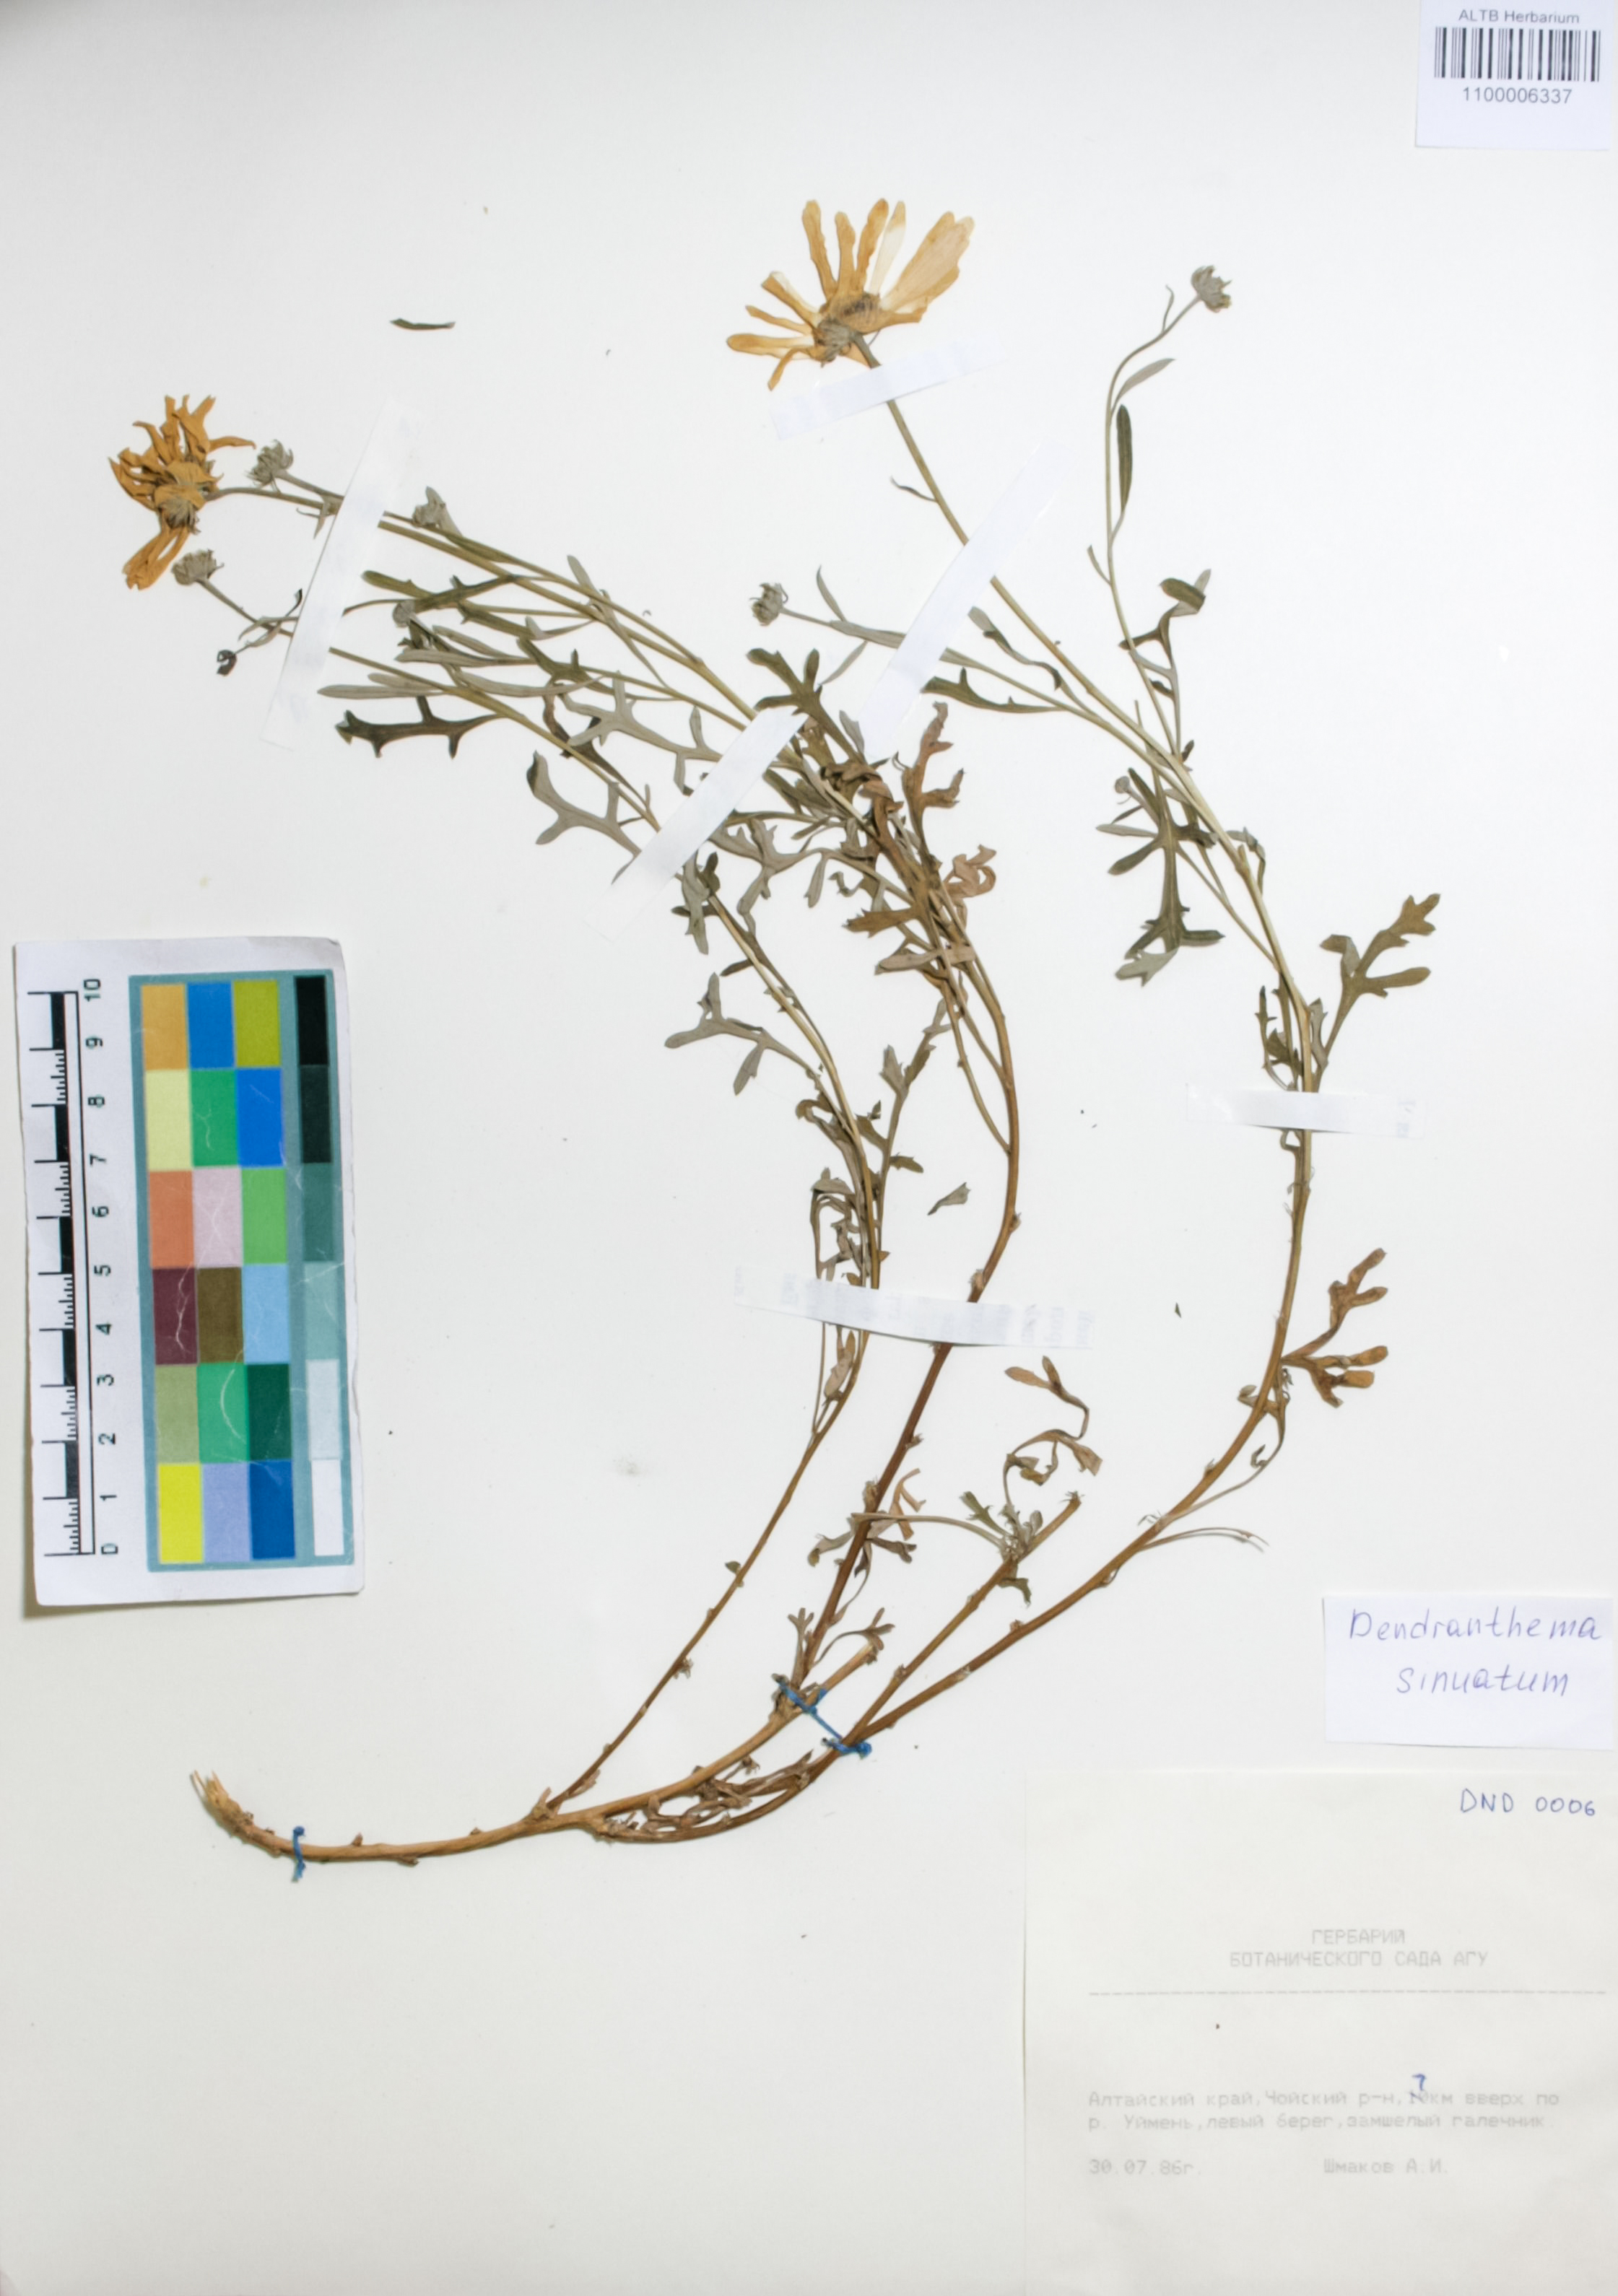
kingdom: Plantae
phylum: Tracheophyta
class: Magnoliopsida
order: Asterales
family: Asteraceae
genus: Chrysanthemum
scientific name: Chrysanthemum sinuatum
